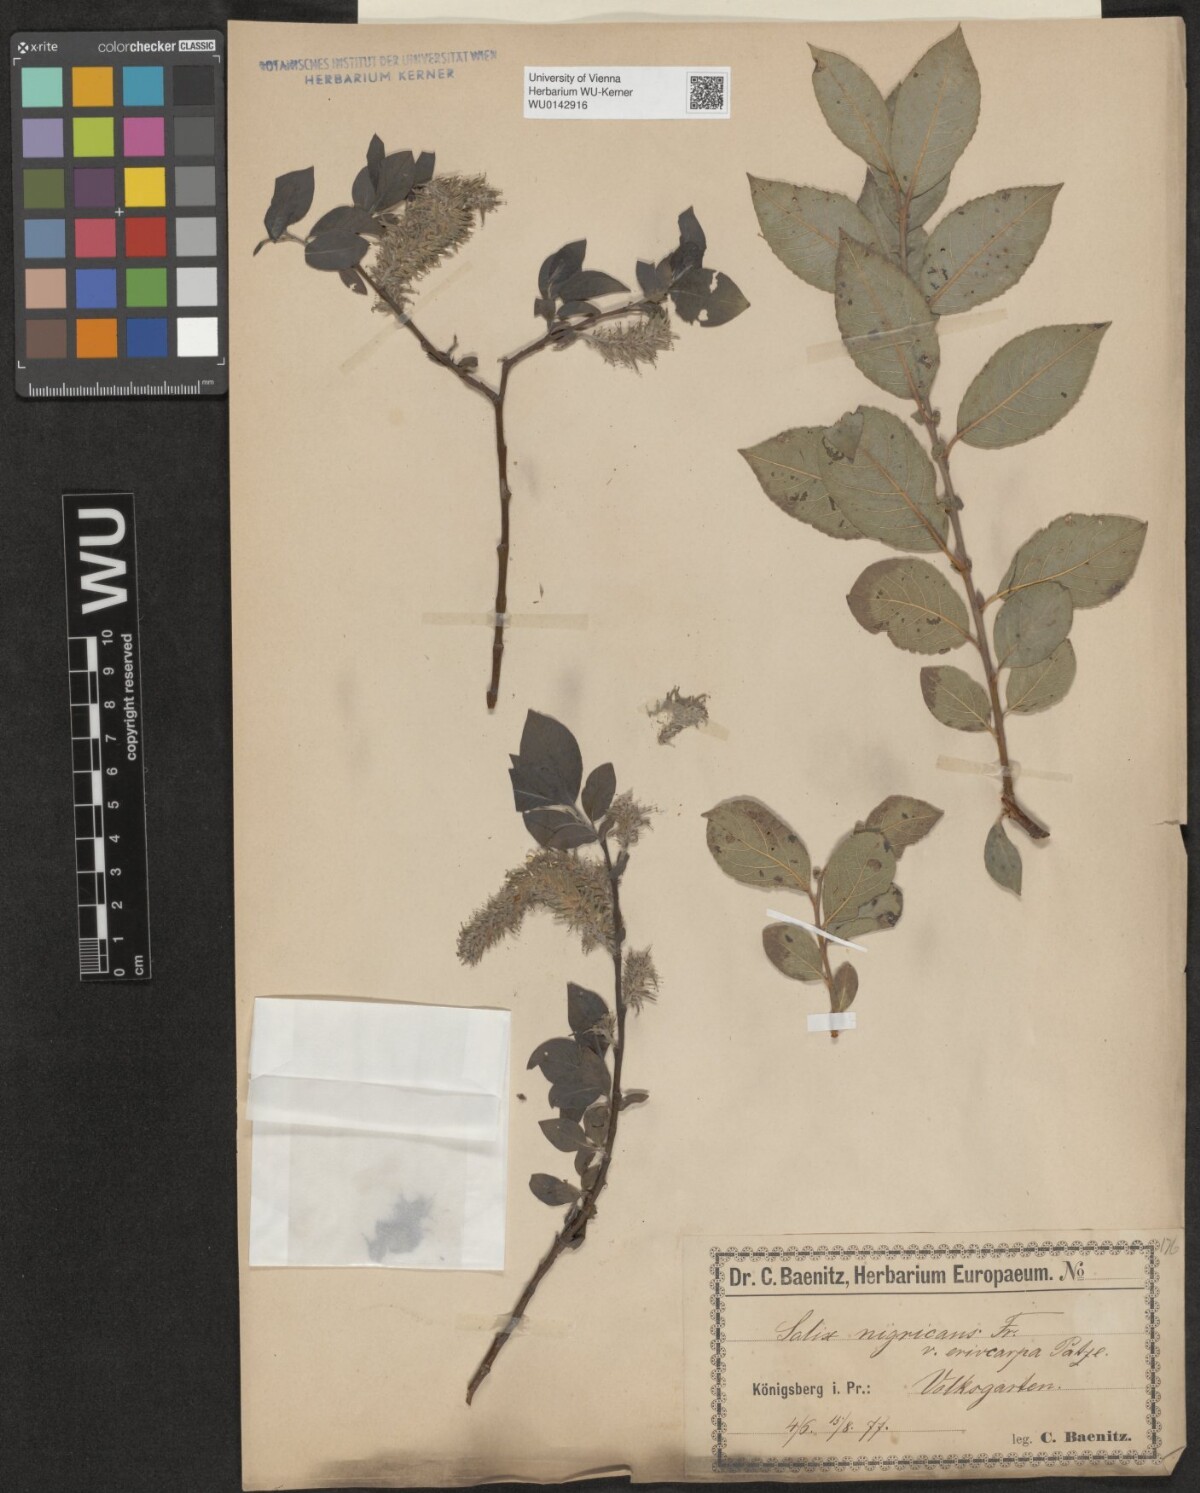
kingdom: Plantae
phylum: Tracheophyta
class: Magnoliopsida
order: Malpighiales
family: Salicaceae
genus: Salix
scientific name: Salix myrsinifolia
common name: Dark-leaved willow
